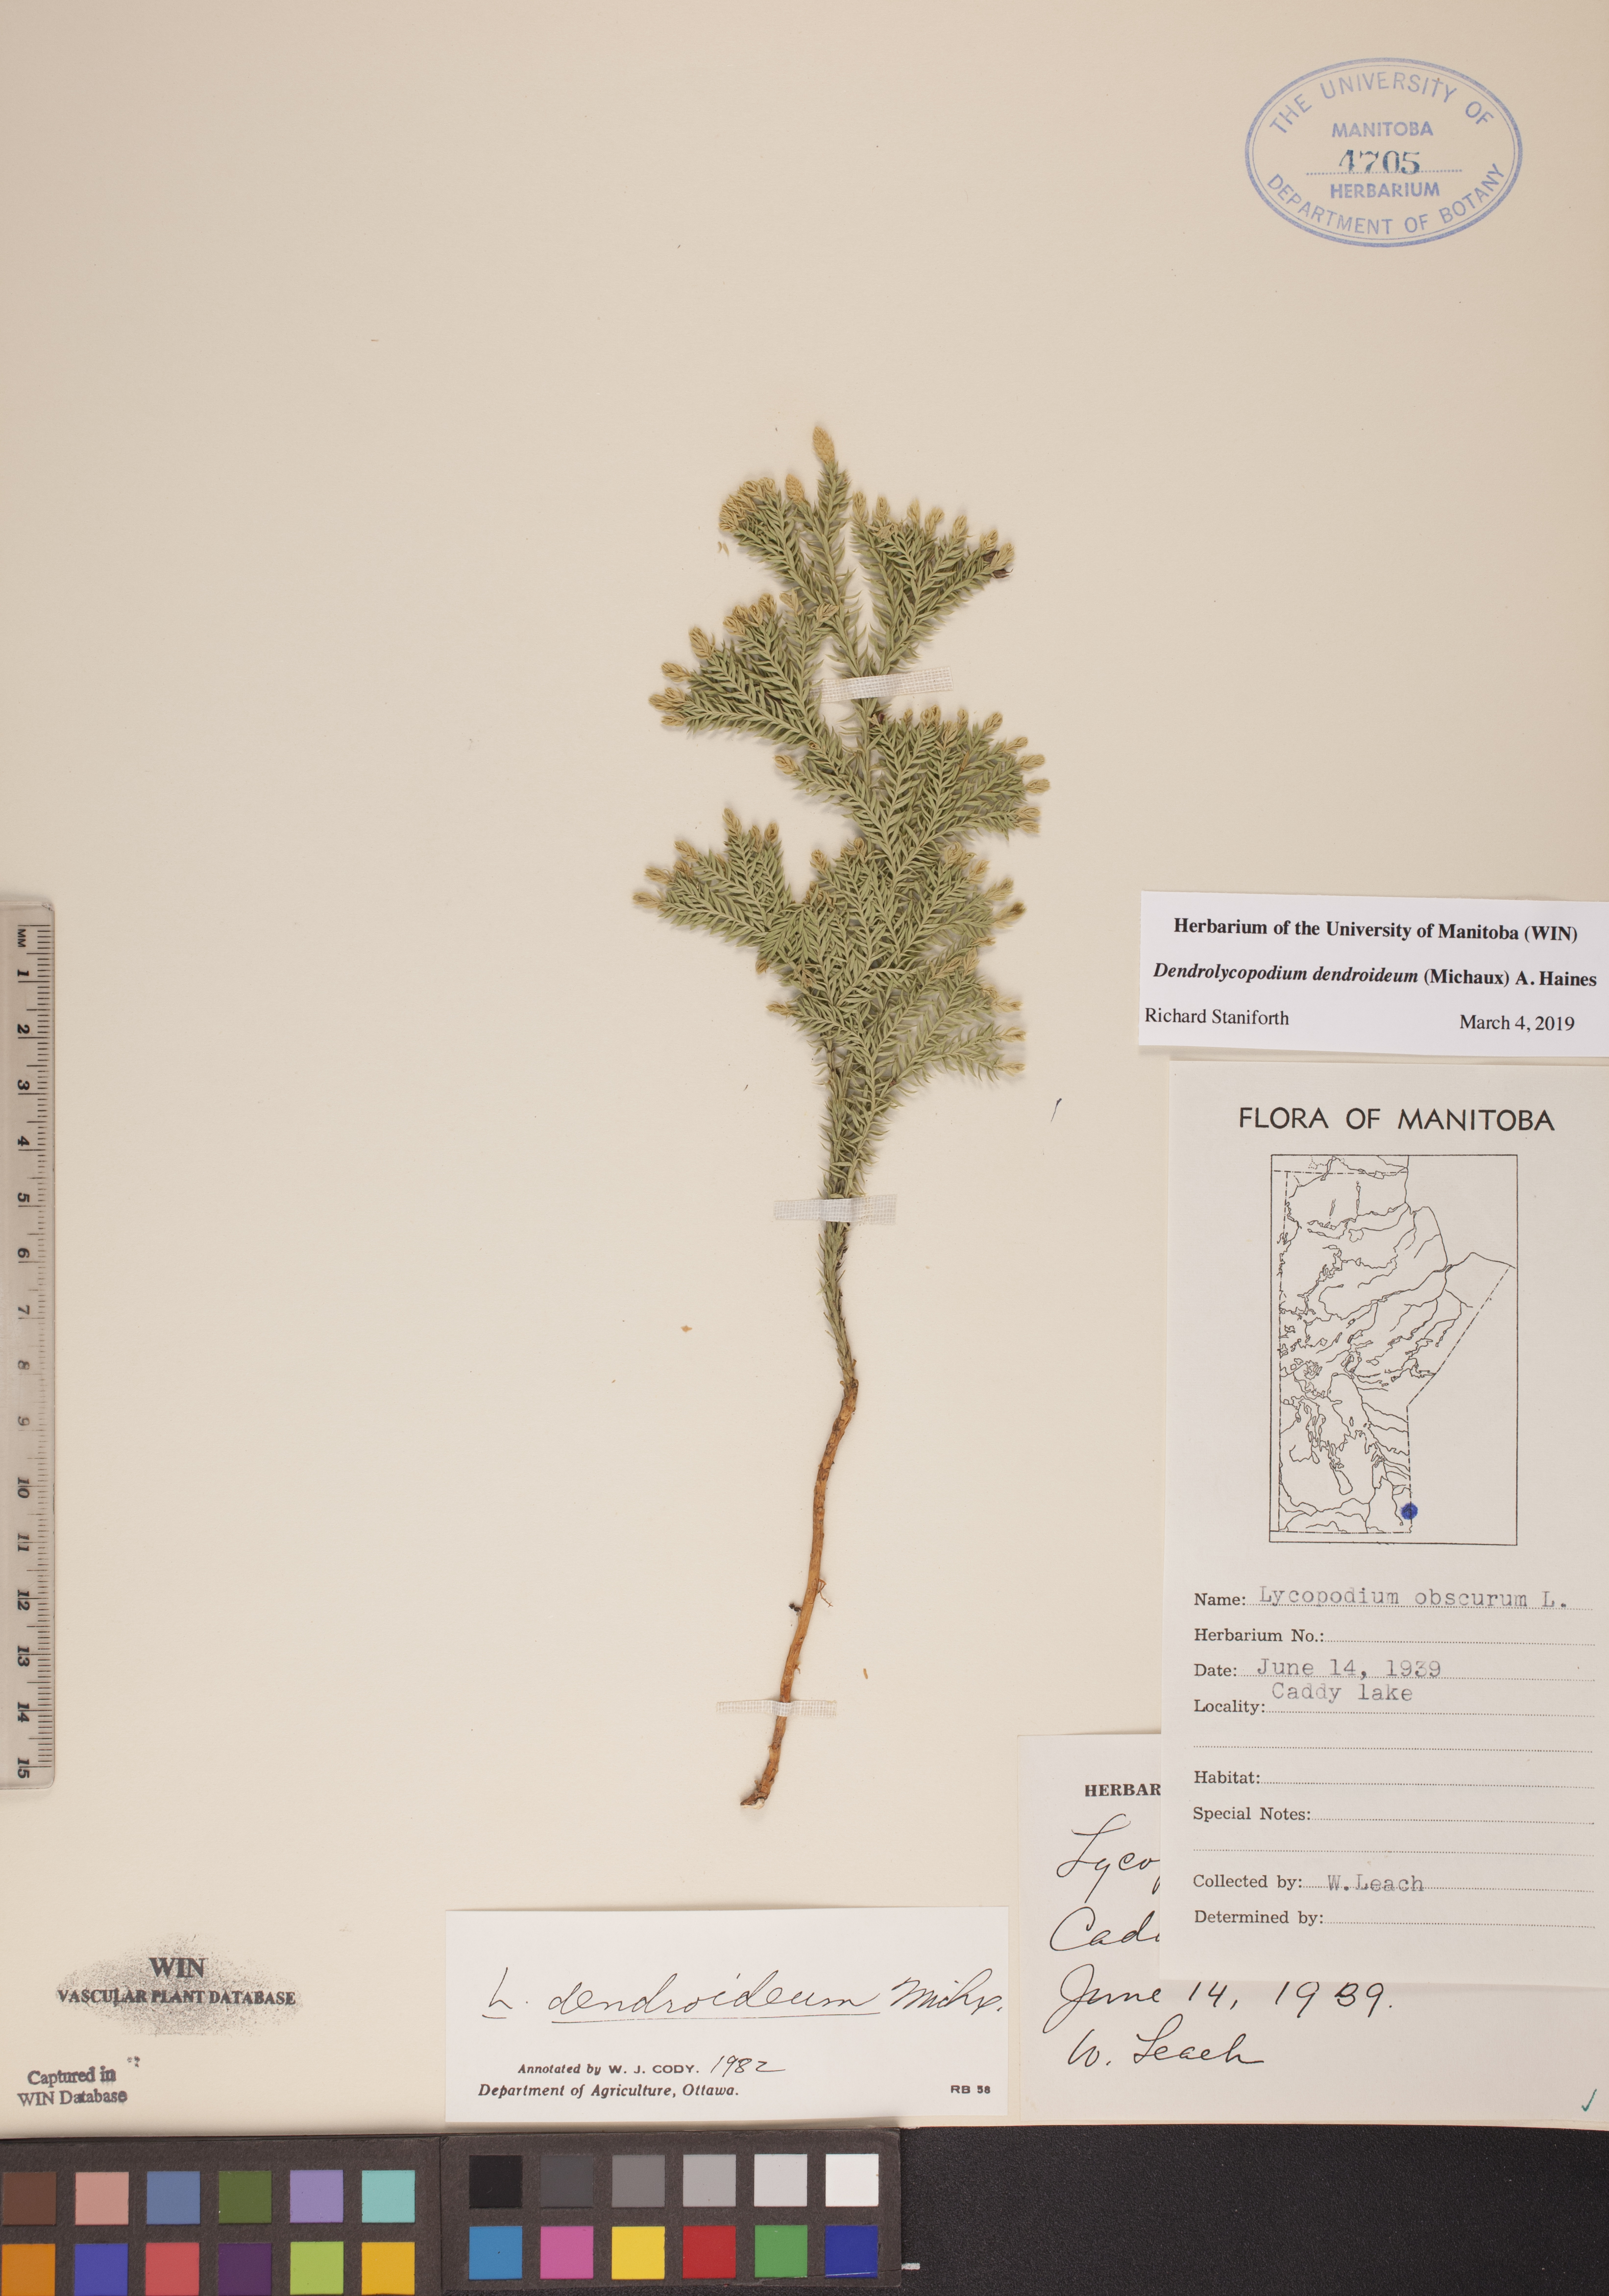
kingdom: Plantae
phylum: Tracheophyta
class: Lycopodiopsida
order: Lycopodiales
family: Lycopodiaceae
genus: Dendrolycopodium
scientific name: Dendrolycopodium dendroideum
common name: Northern tree-clubmoss
